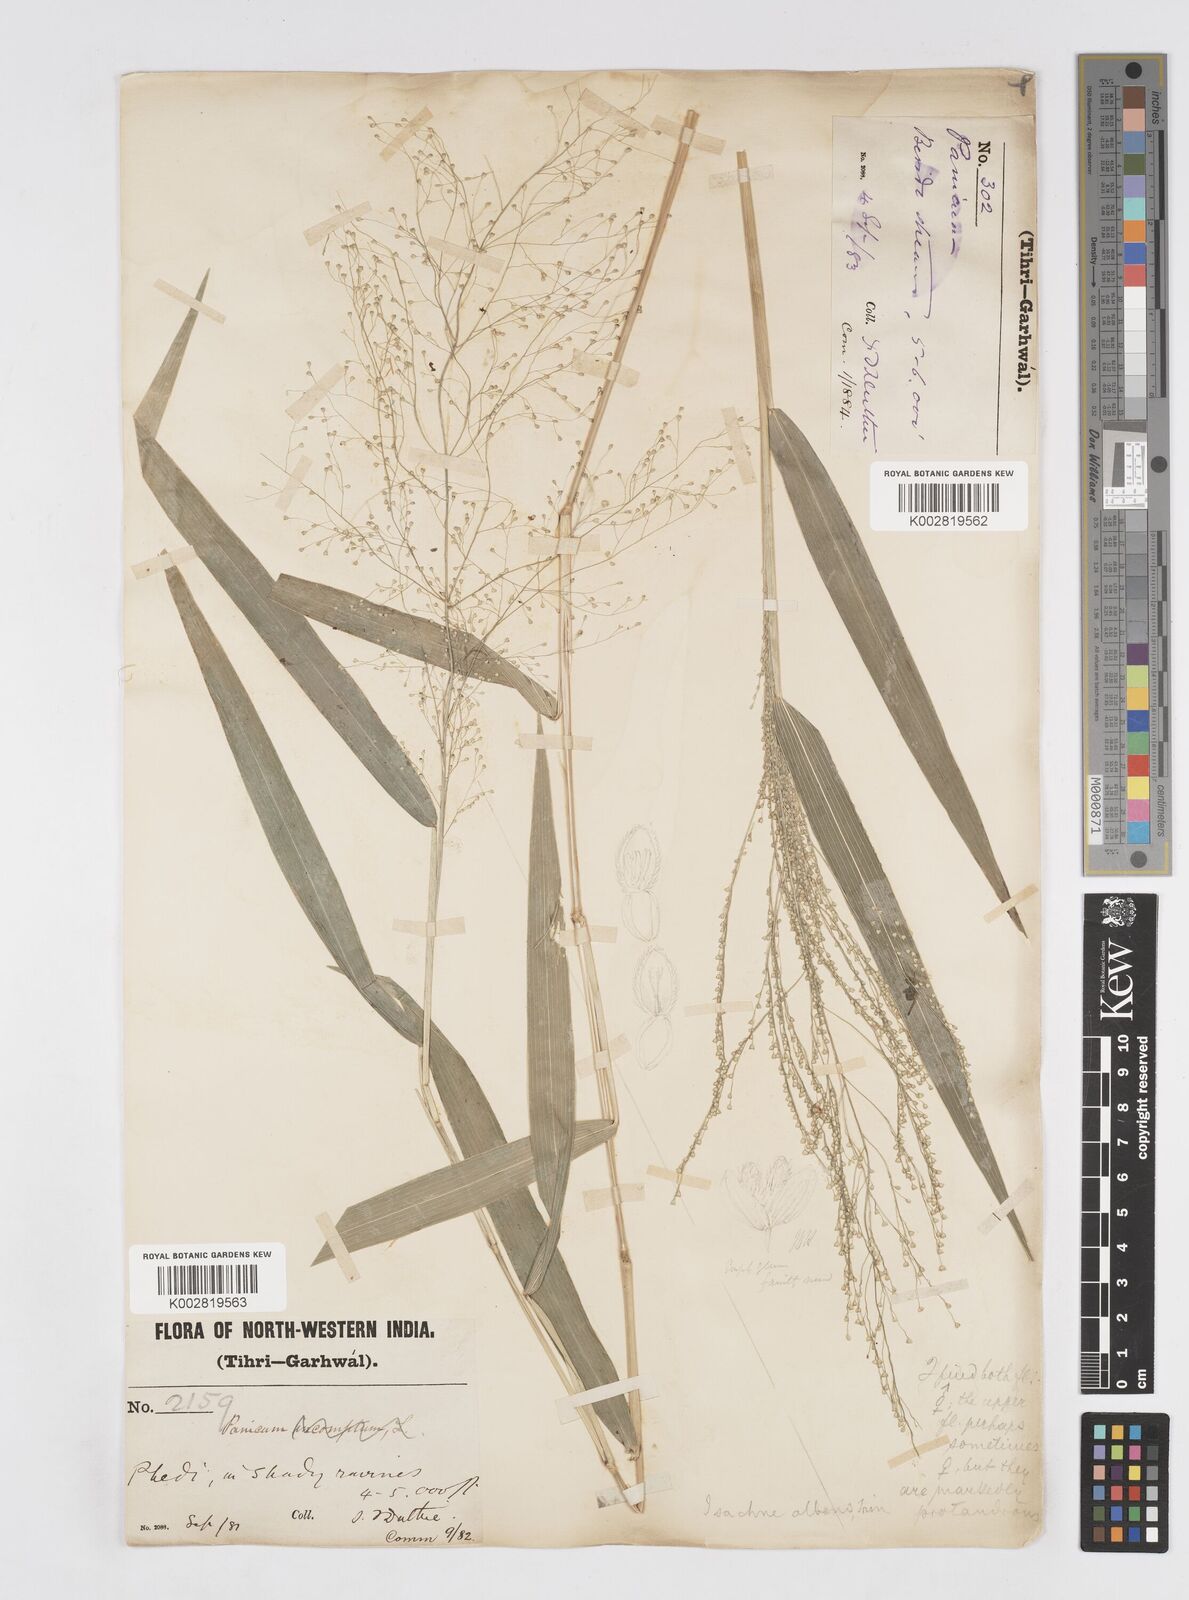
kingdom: Plantae
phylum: Tracheophyta
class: Liliopsida
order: Poales
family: Poaceae
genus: Isachne
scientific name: Isachne albens
